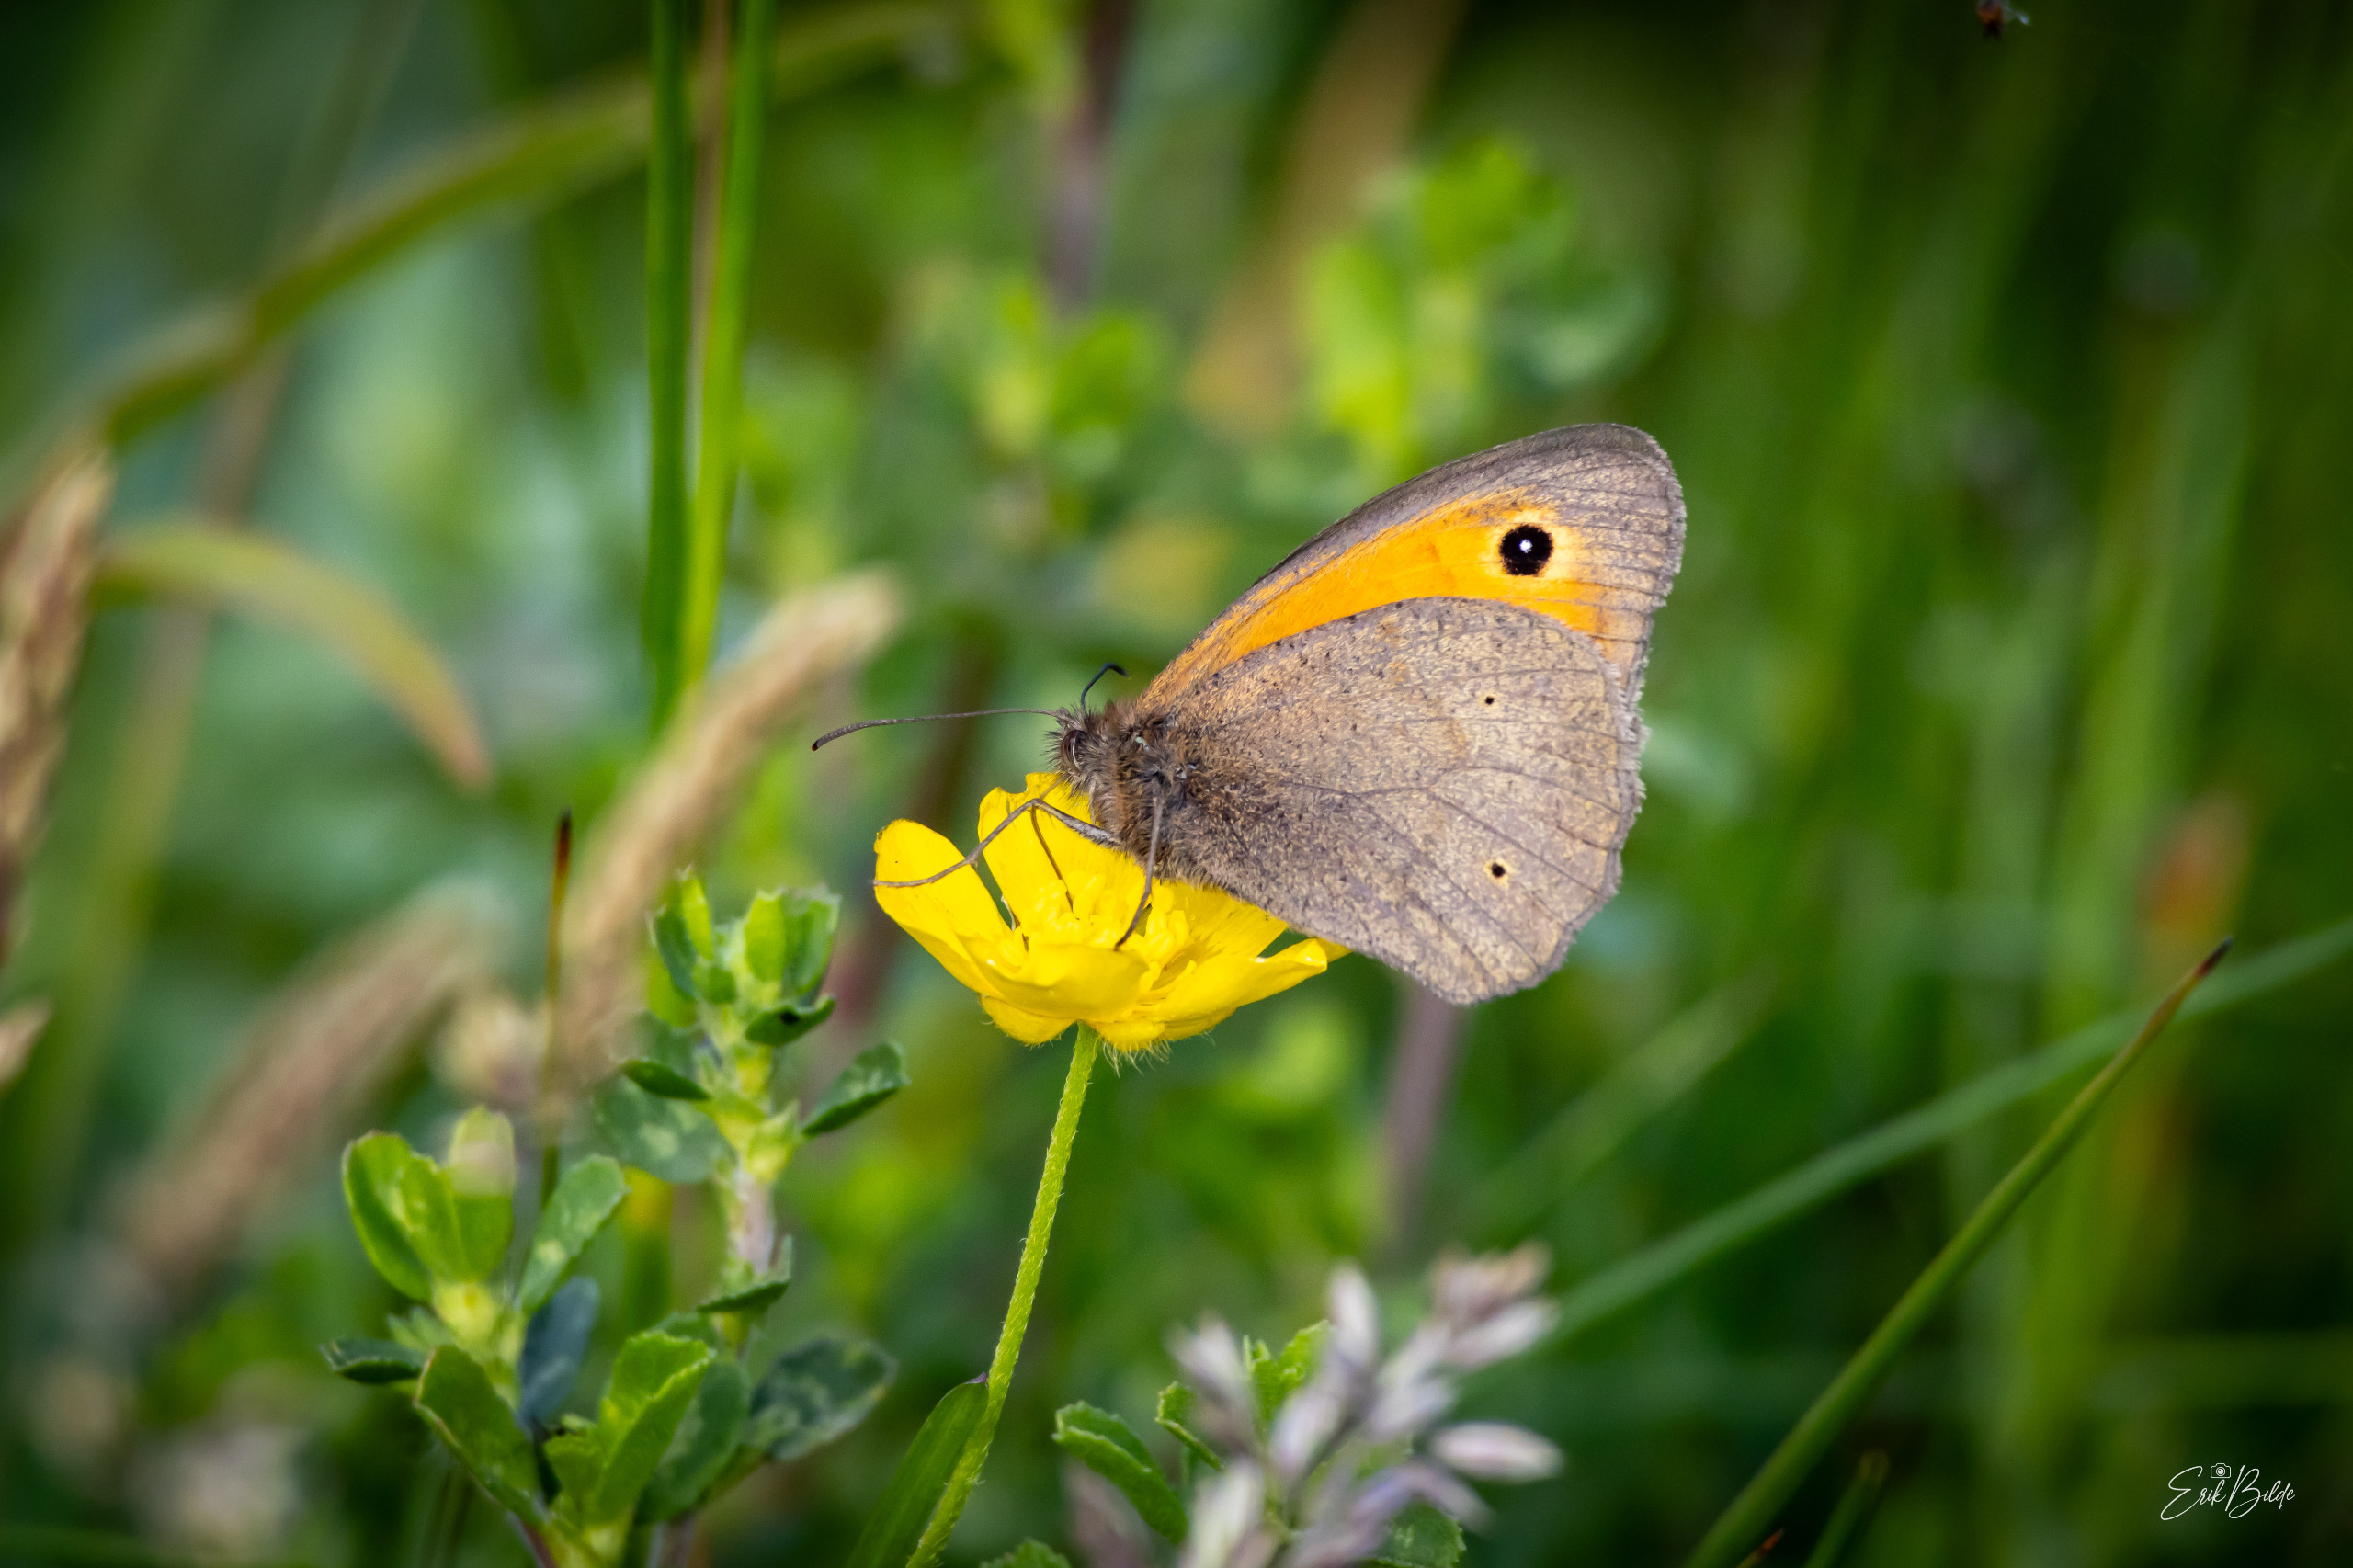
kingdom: Animalia
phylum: Arthropoda
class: Insecta
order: Lepidoptera
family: Nymphalidae
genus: Maniola
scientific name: Maniola jurtina
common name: Græsrandøje
